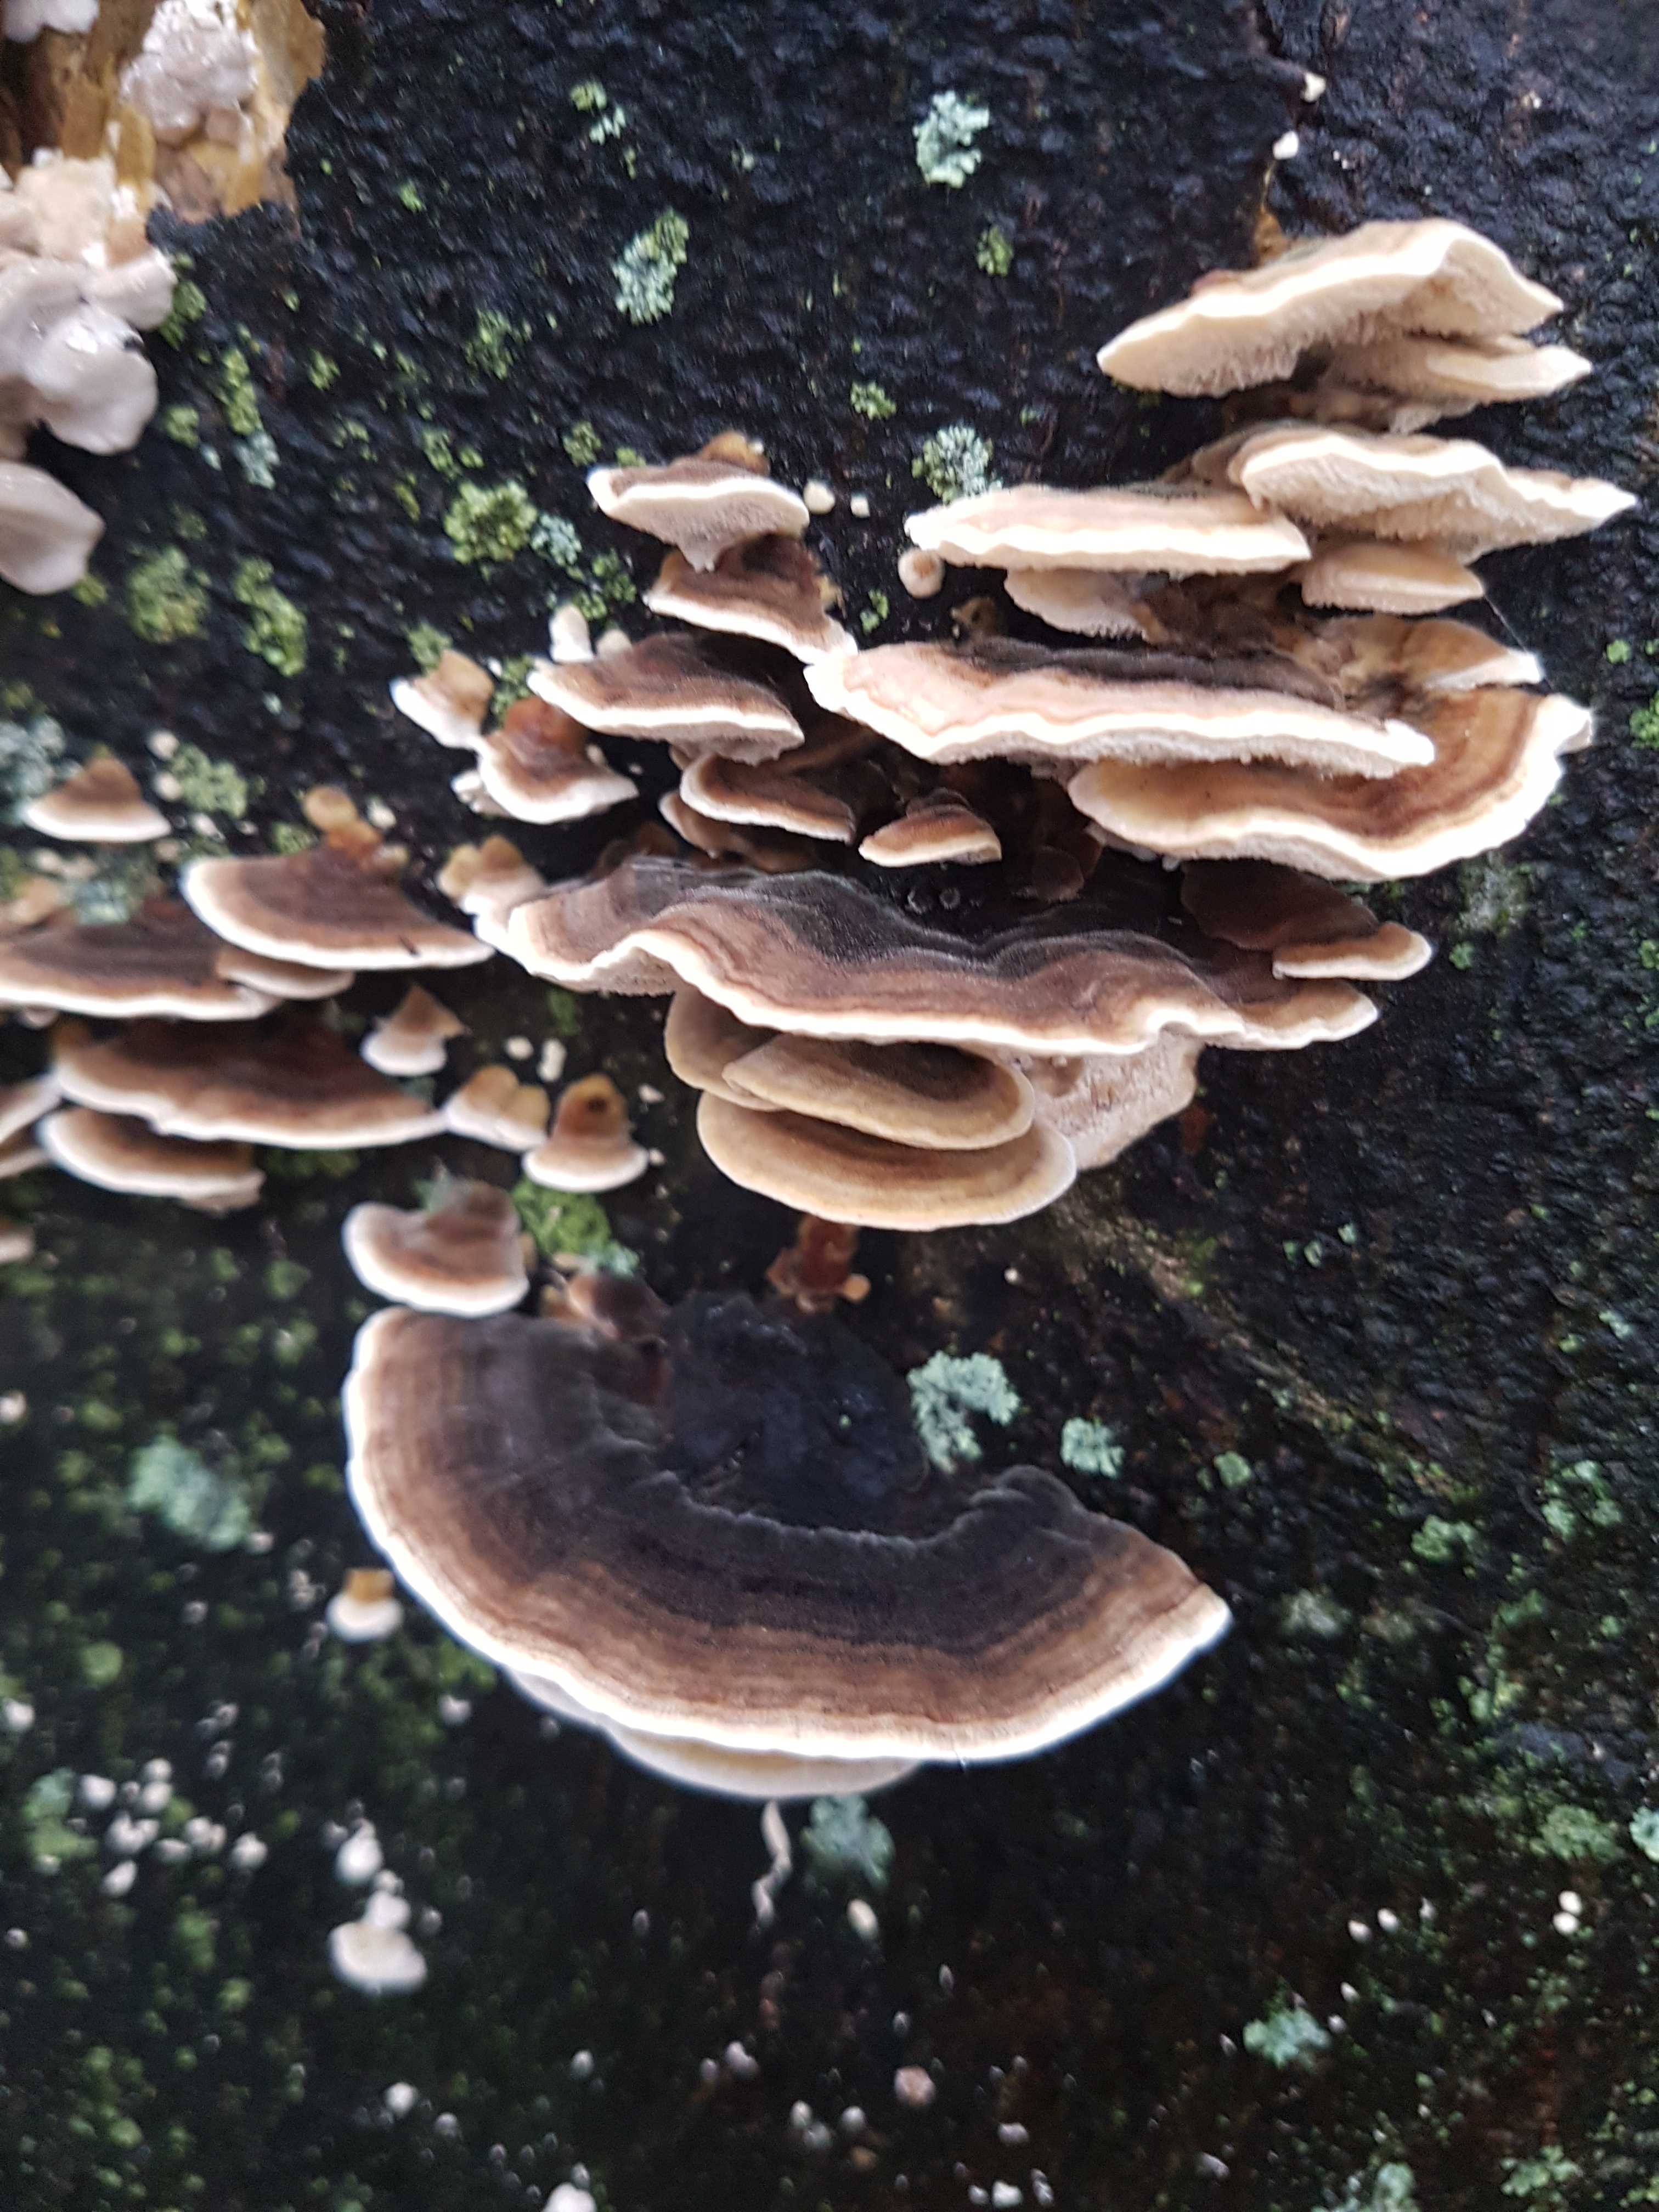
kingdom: Fungi
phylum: Basidiomycota
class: Agaricomycetes
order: Polyporales
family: Polyporaceae
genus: Trametes
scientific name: Trametes versicolor
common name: broget læderporesvamp
